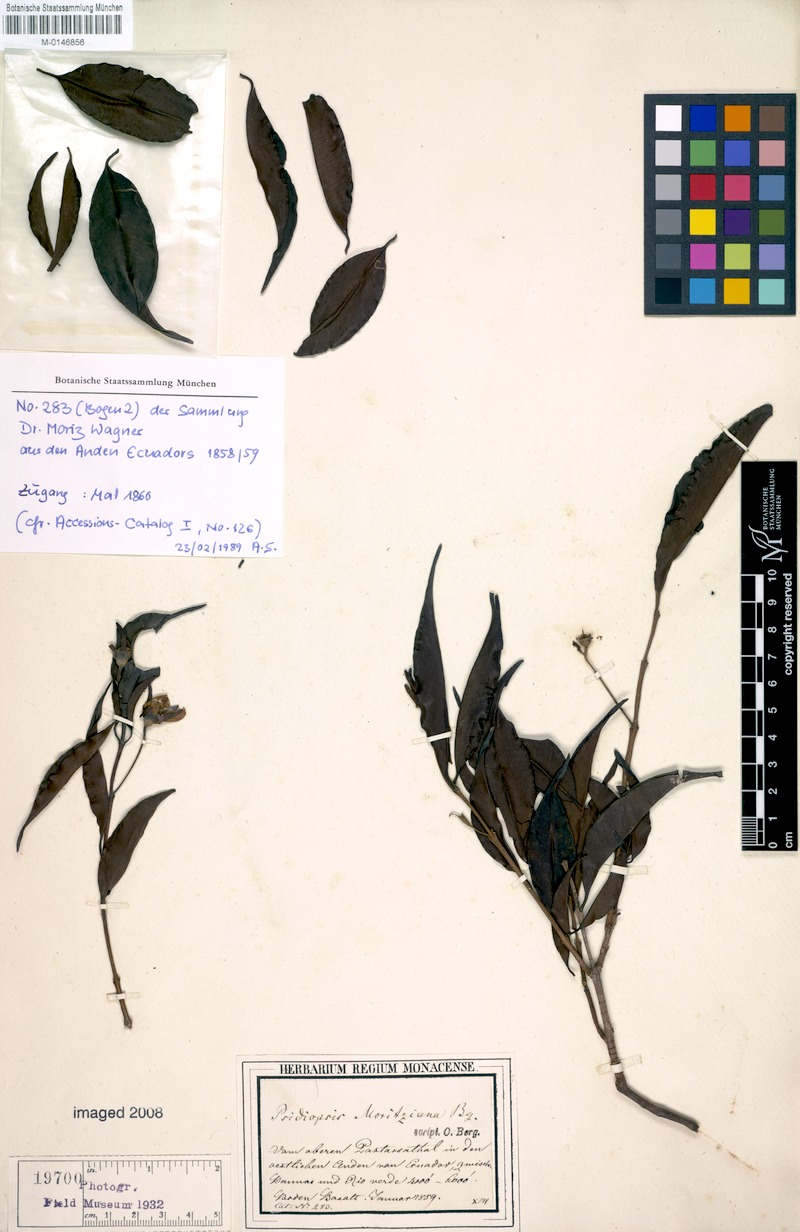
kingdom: Plantae
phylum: Tracheophyta
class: Magnoliopsida
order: Myrtales
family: Myrtaceae
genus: Calycolpus
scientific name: Calycolpus moritzianus
